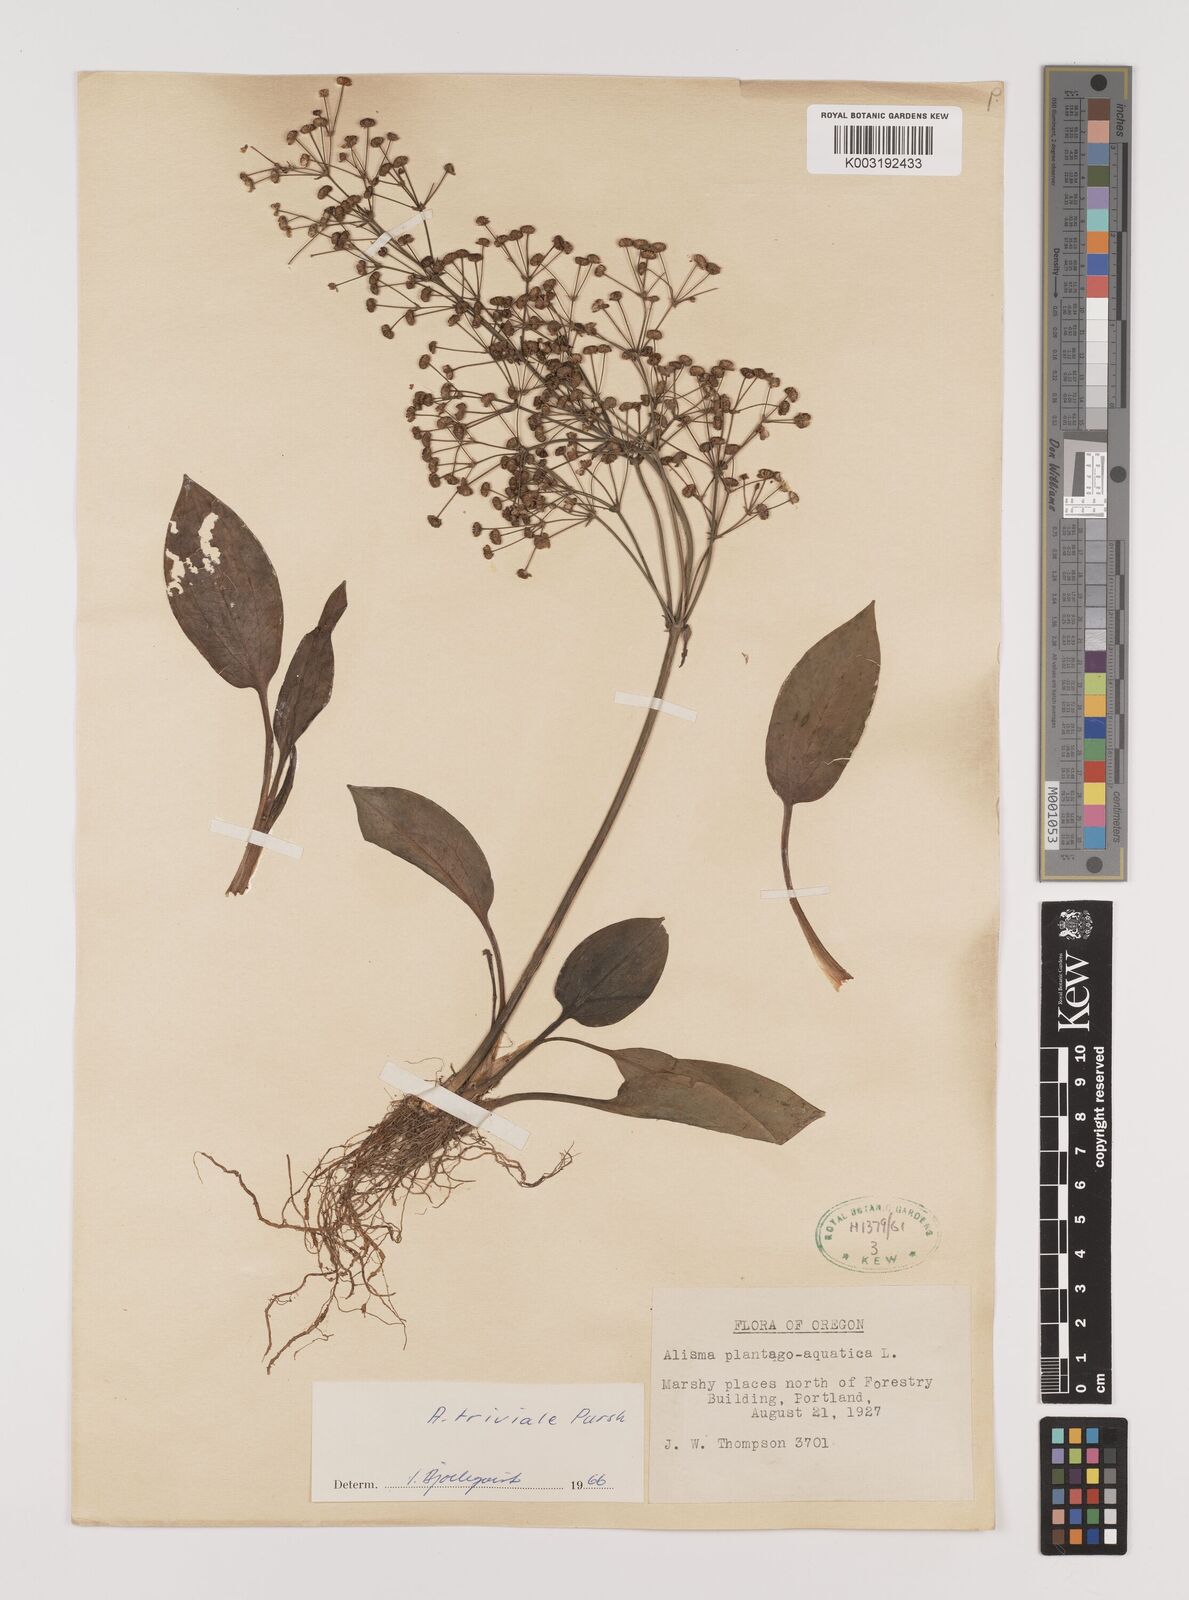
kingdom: Plantae
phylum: Tracheophyta
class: Liliopsida
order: Alismatales
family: Alismataceae
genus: Alisma
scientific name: Alisma triviale
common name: Northern water-plantain
